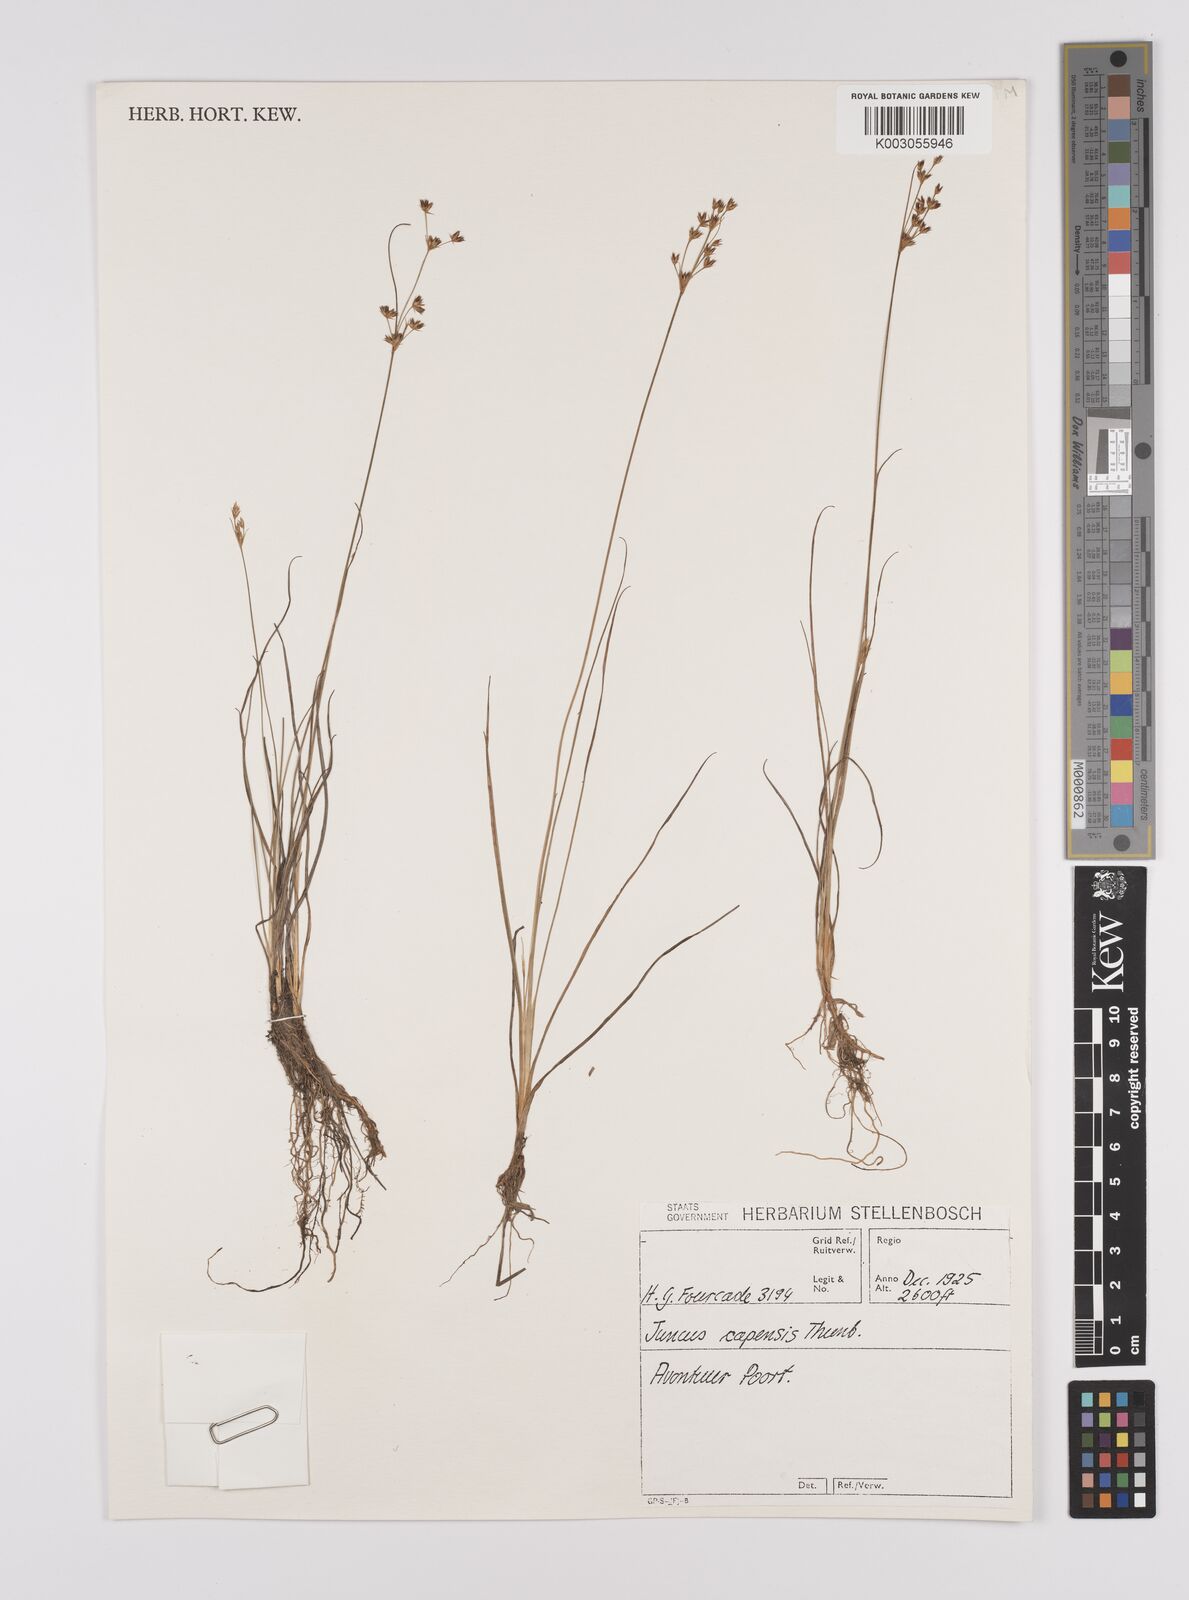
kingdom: Plantae
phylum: Tracheophyta
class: Liliopsida
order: Poales
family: Juncaceae
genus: Juncus
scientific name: Juncus capensis
